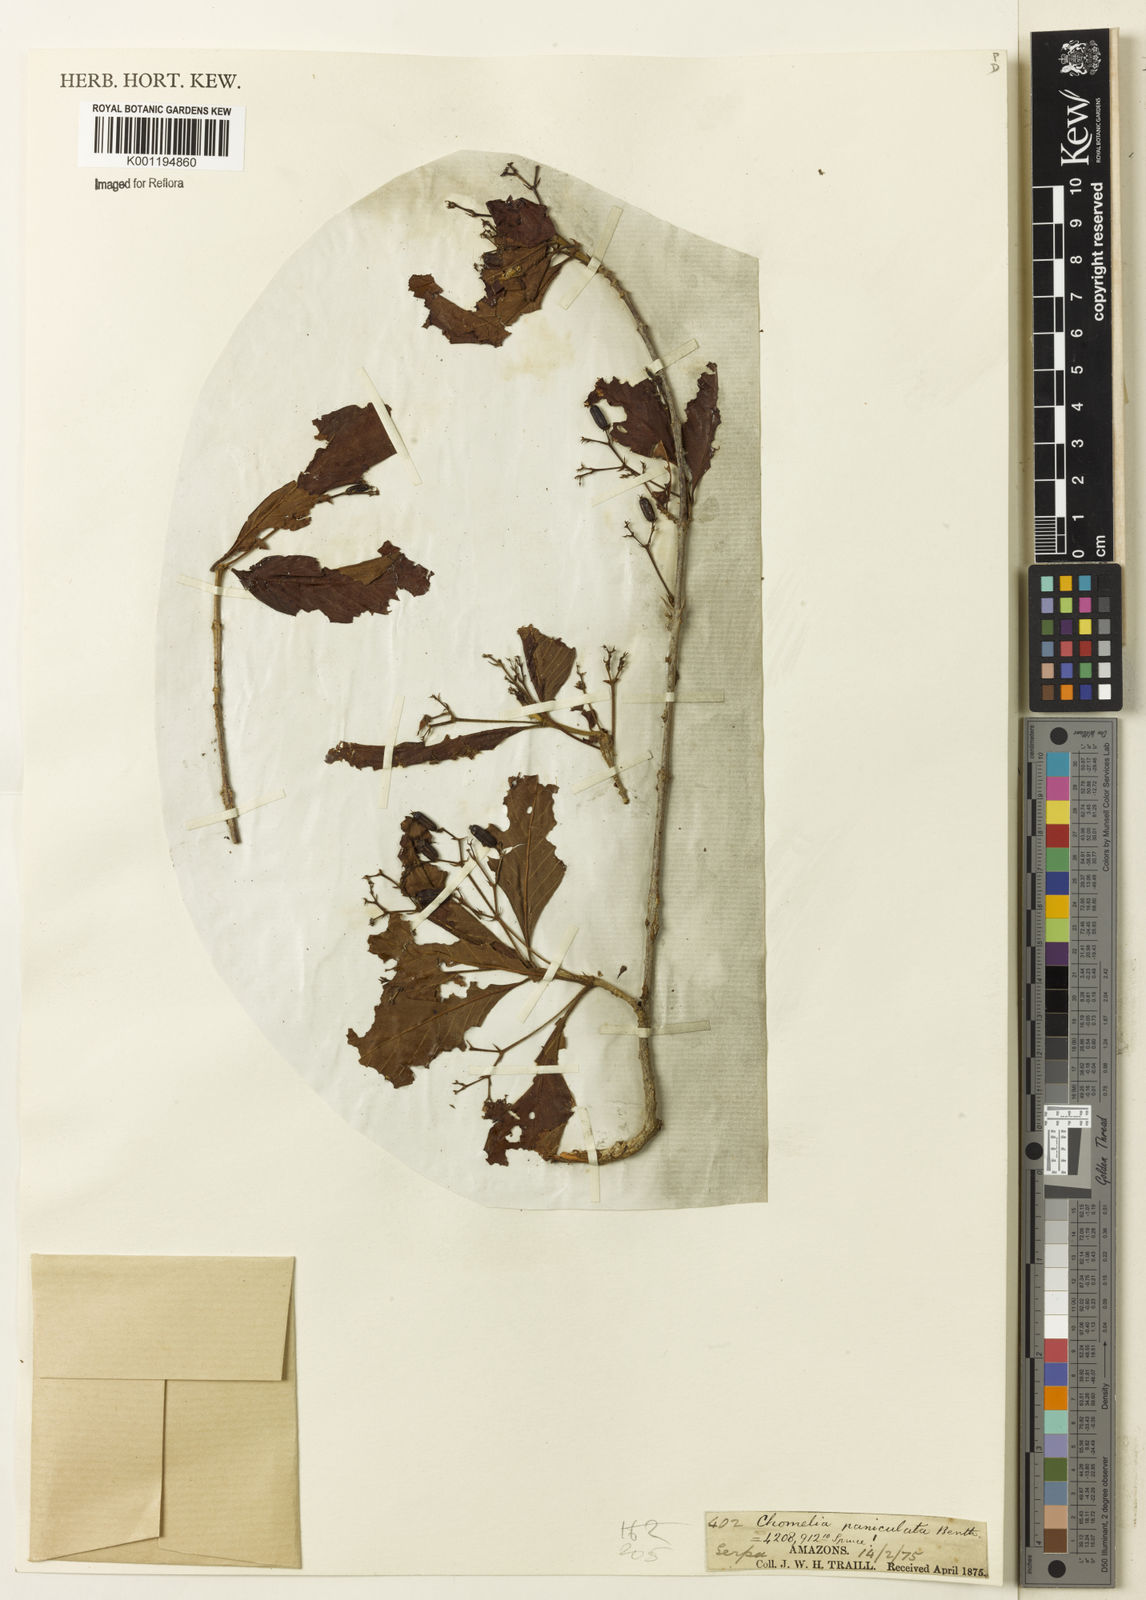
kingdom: Plantae
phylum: Tracheophyta
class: Magnoliopsida
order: Gentianales
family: Rubiaceae
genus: Chomelia
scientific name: Chomelia paniculata
